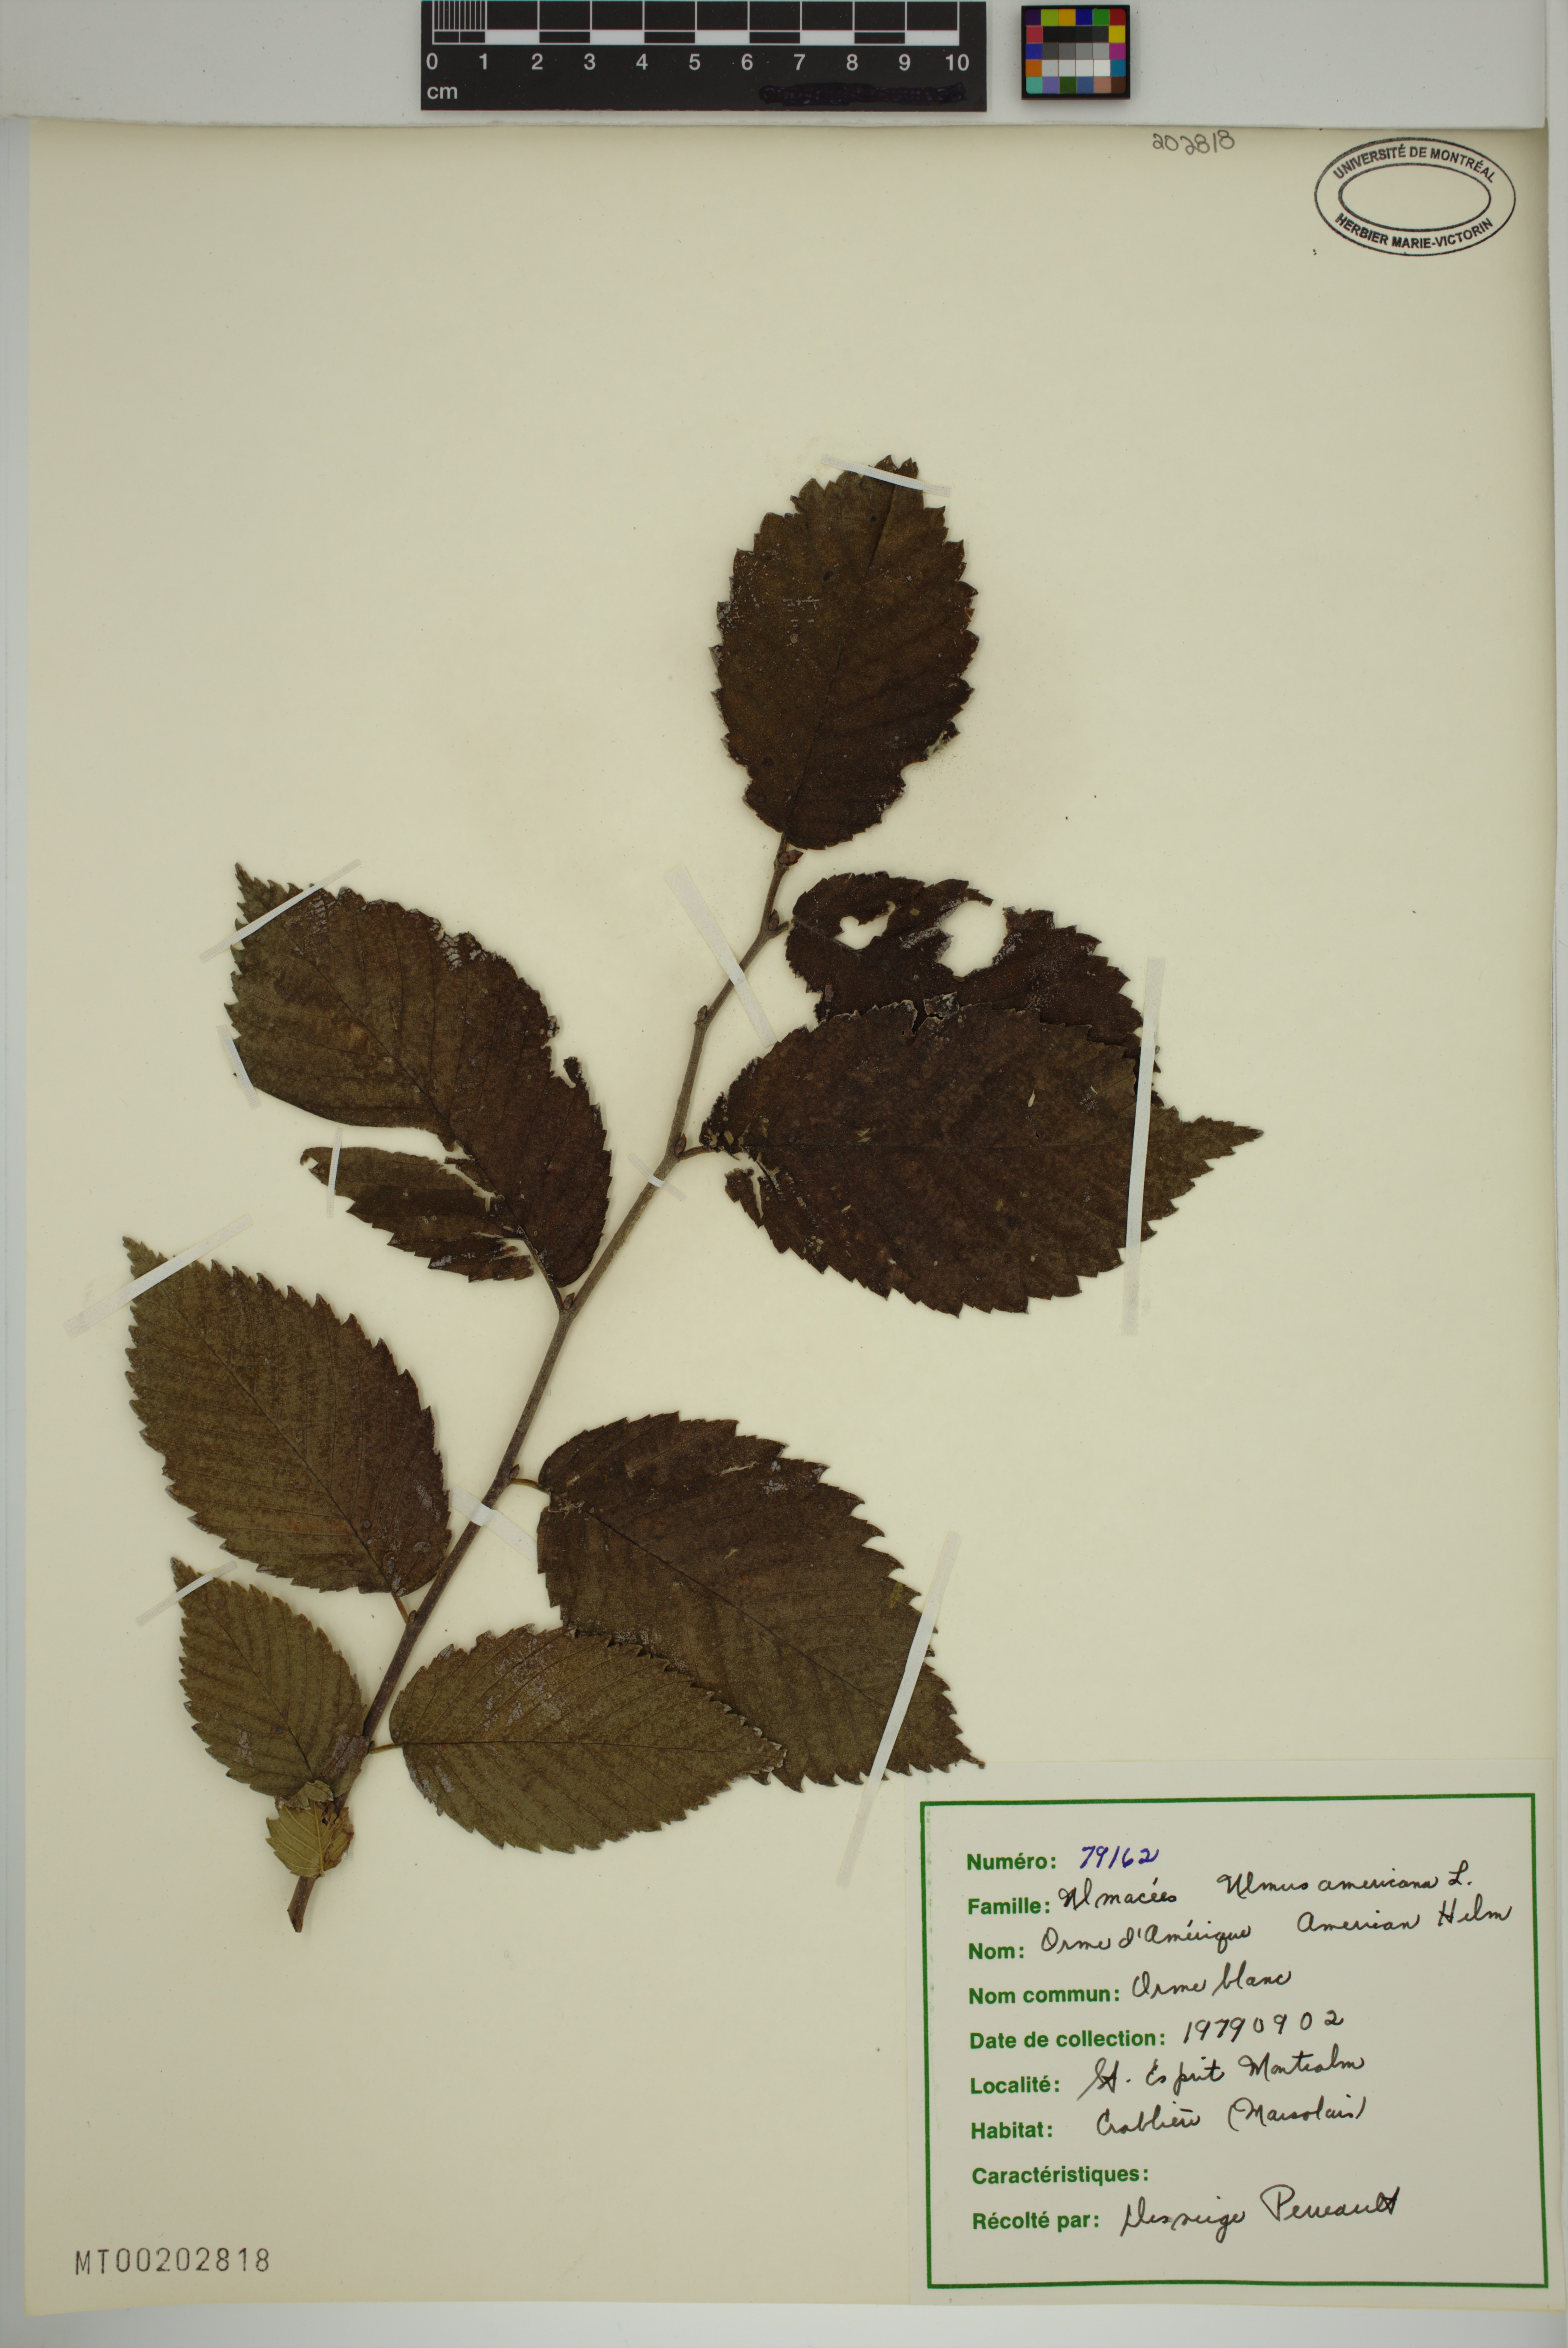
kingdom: Plantae
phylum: Tracheophyta
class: Magnoliopsida
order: Rosales
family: Ulmaceae
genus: Ulmus
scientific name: Ulmus americana
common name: American elm
